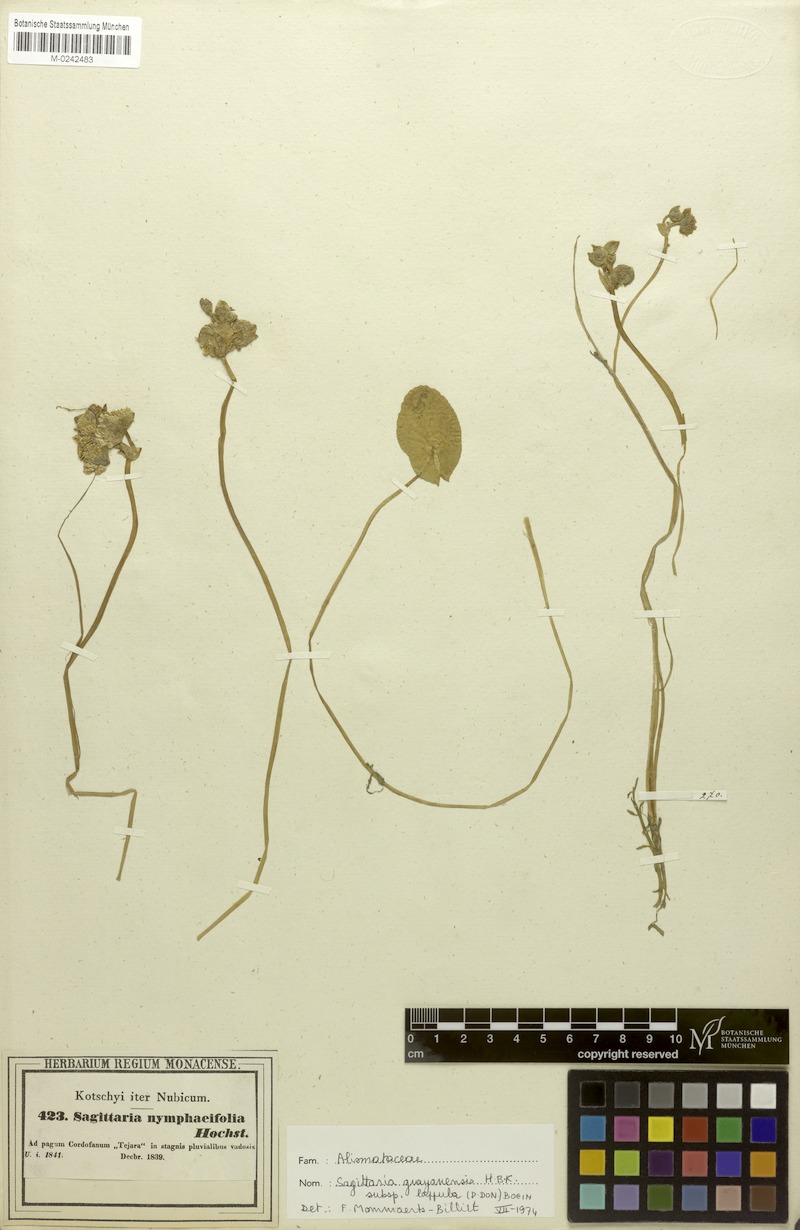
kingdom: Plantae
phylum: Tracheophyta
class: Liliopsida
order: Alismatales
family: Alismataceae
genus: Limnophyton
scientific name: Limnophyton obtusifolium
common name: Arrow head
